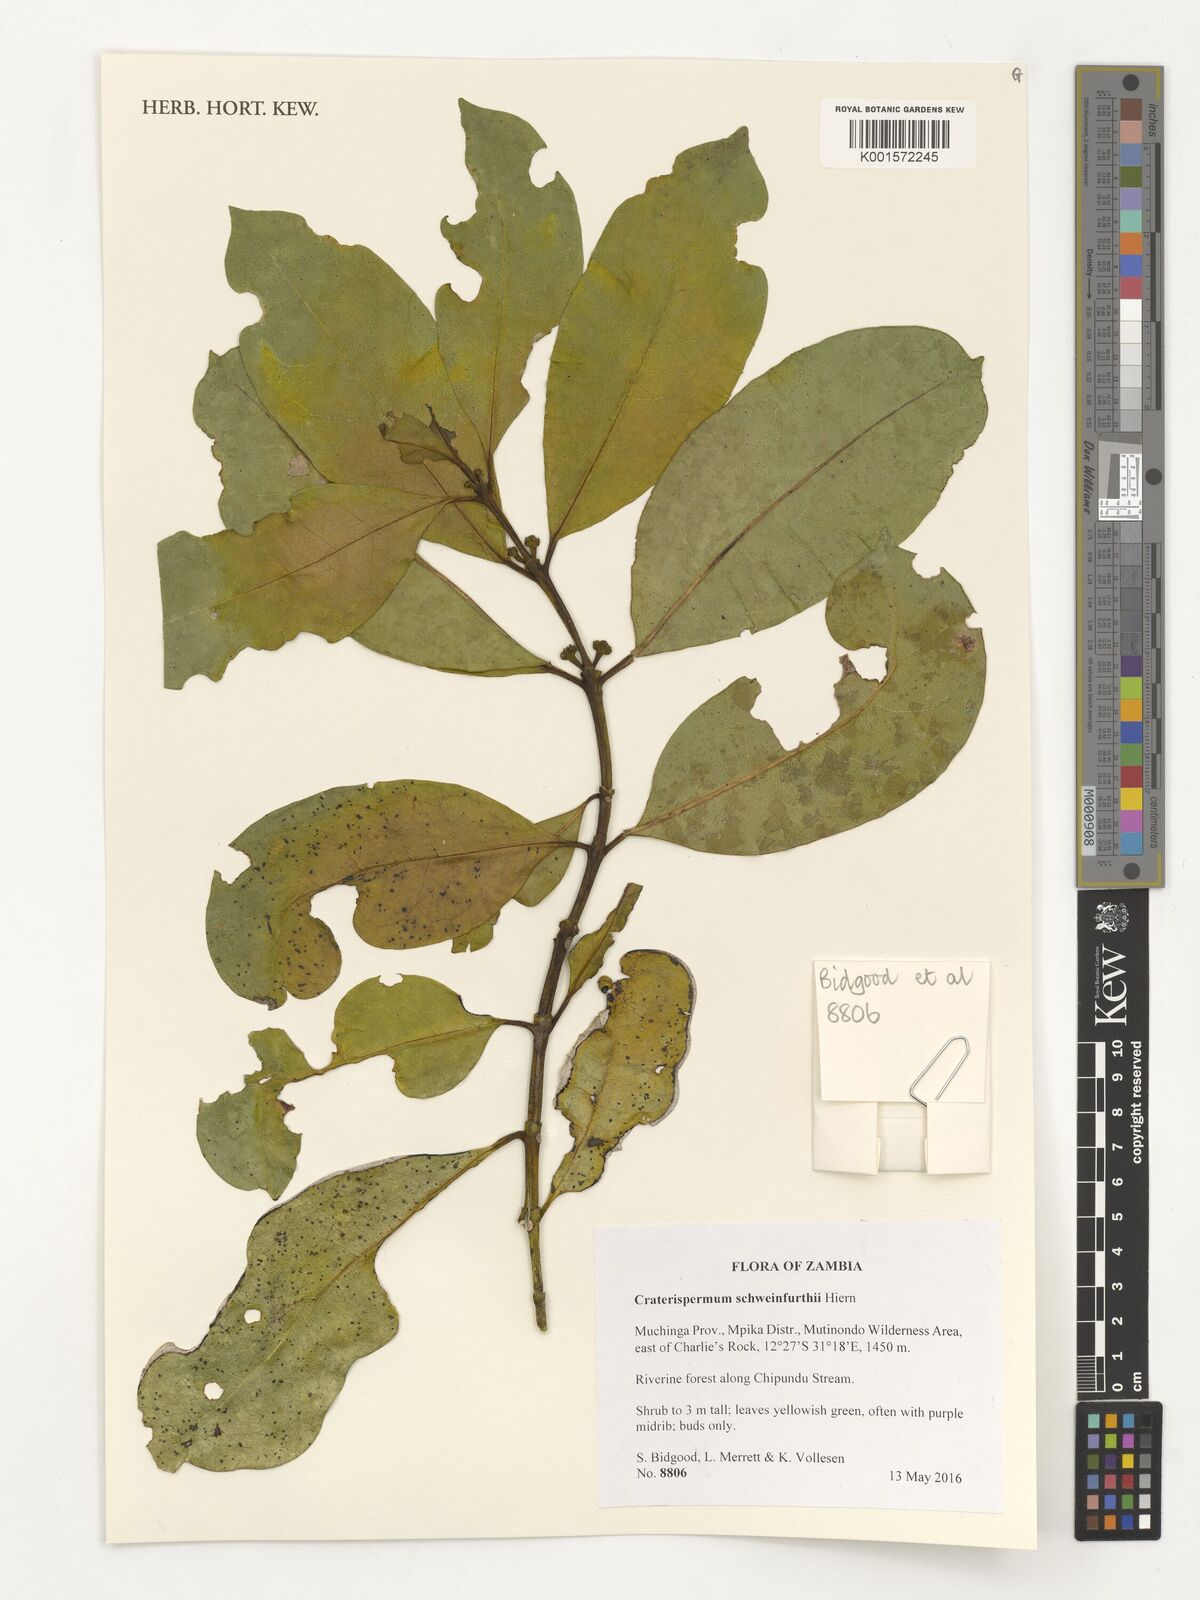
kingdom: Plantae
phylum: Tracheophyta
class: Magnoliopsida
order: Gentianales
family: Rubiaceae
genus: Craterispermum
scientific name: Craterispermum schweinfurthii
